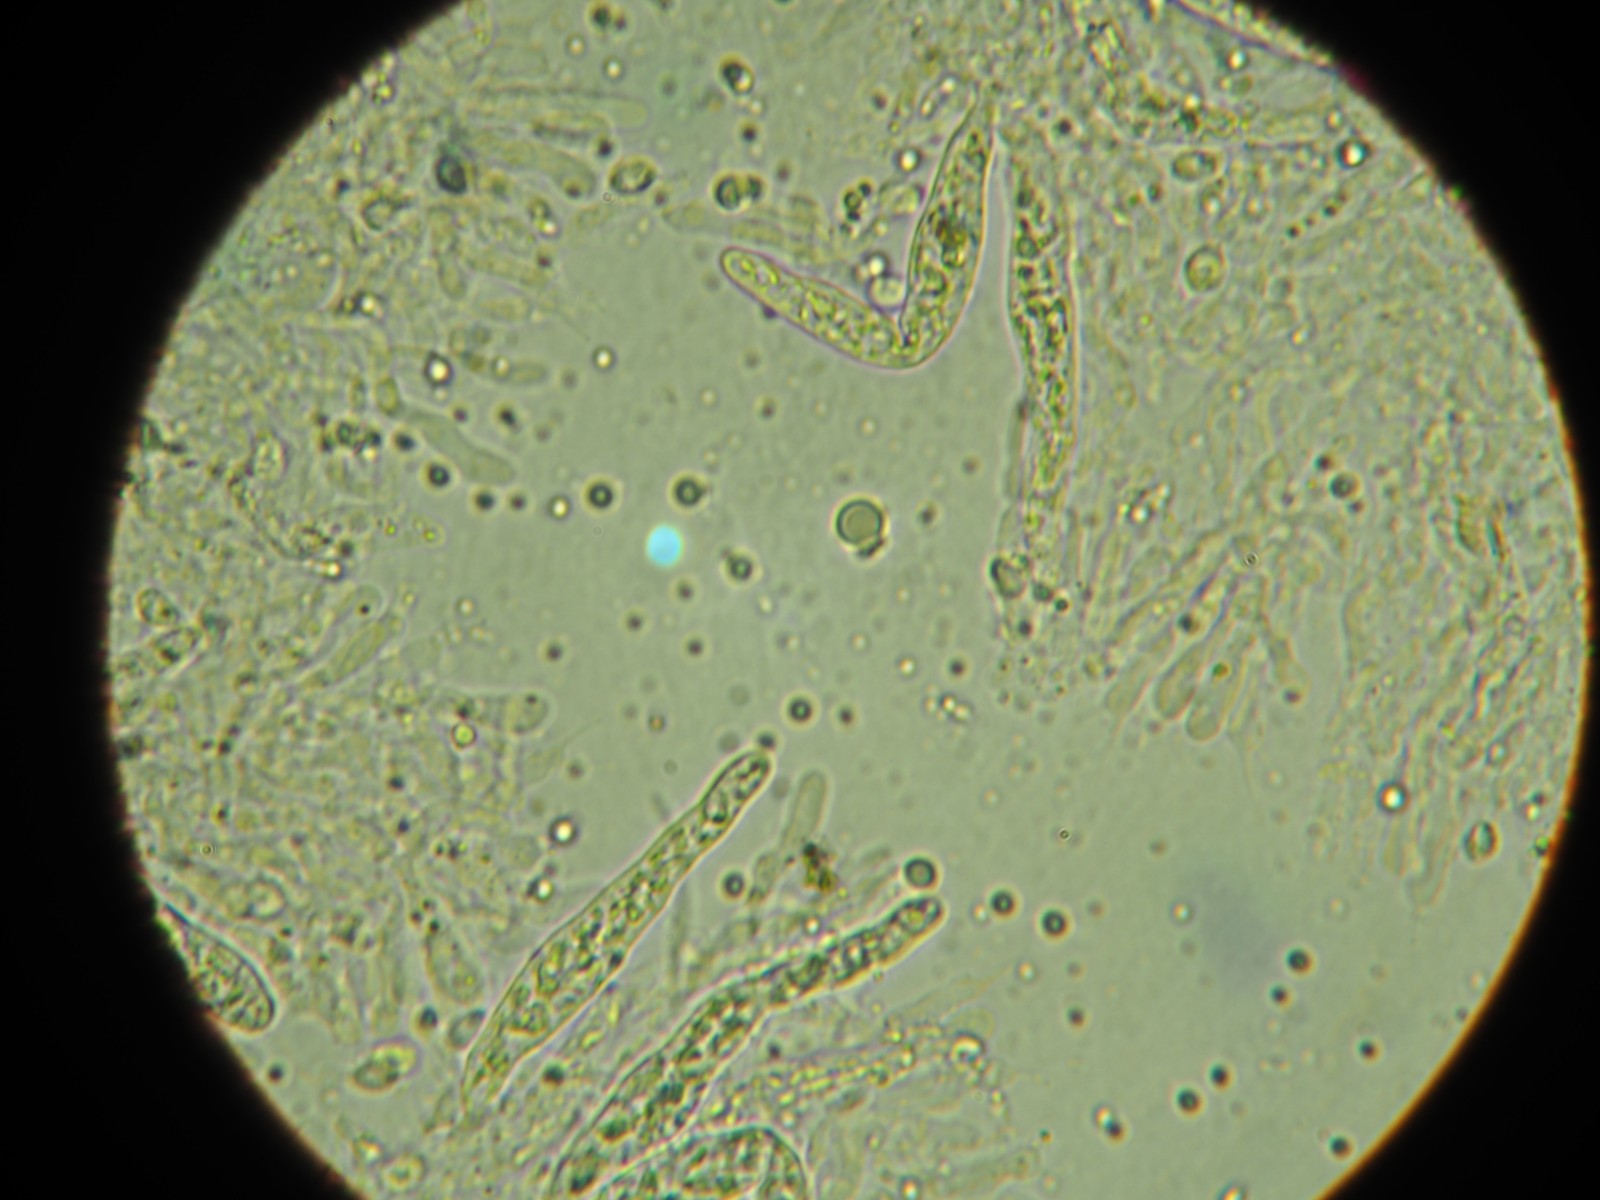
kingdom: Fungi
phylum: Basidiomycota
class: Agaricomycetes
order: Russulales
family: Stereaceae
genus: Gloeocystidiellum
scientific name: Gloeocystidiellum porosum
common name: mælkehvid olieskind
